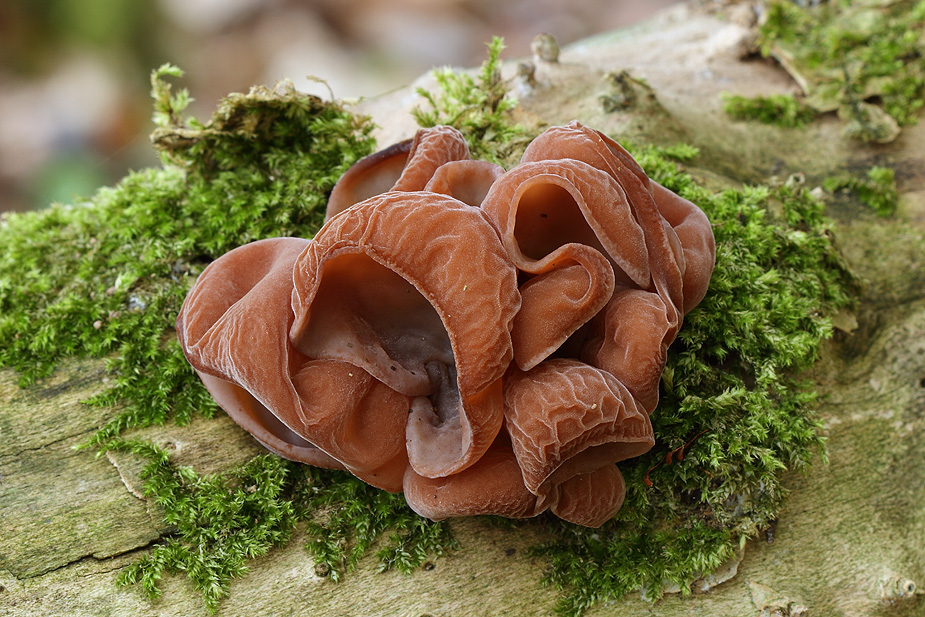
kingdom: Fungi
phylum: Basidiomycota
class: Agaricomycetes
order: Auriculariales
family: Auriculariaceae
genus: Auricularia
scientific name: Auricularia auricula-judae
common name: almindelig judasøre
